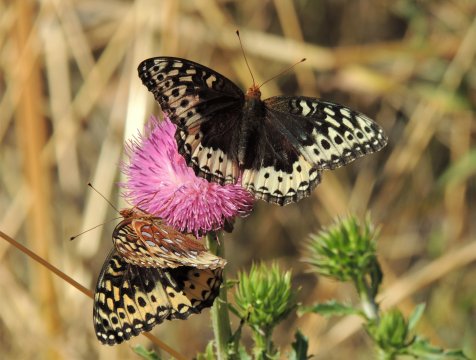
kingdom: Animalia
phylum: Arthropoda
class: Insecta
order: Lepidoptera
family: Nymphalidae
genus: Speyeria
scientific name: Speyeria cybele
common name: Great Spangled Fritillary
